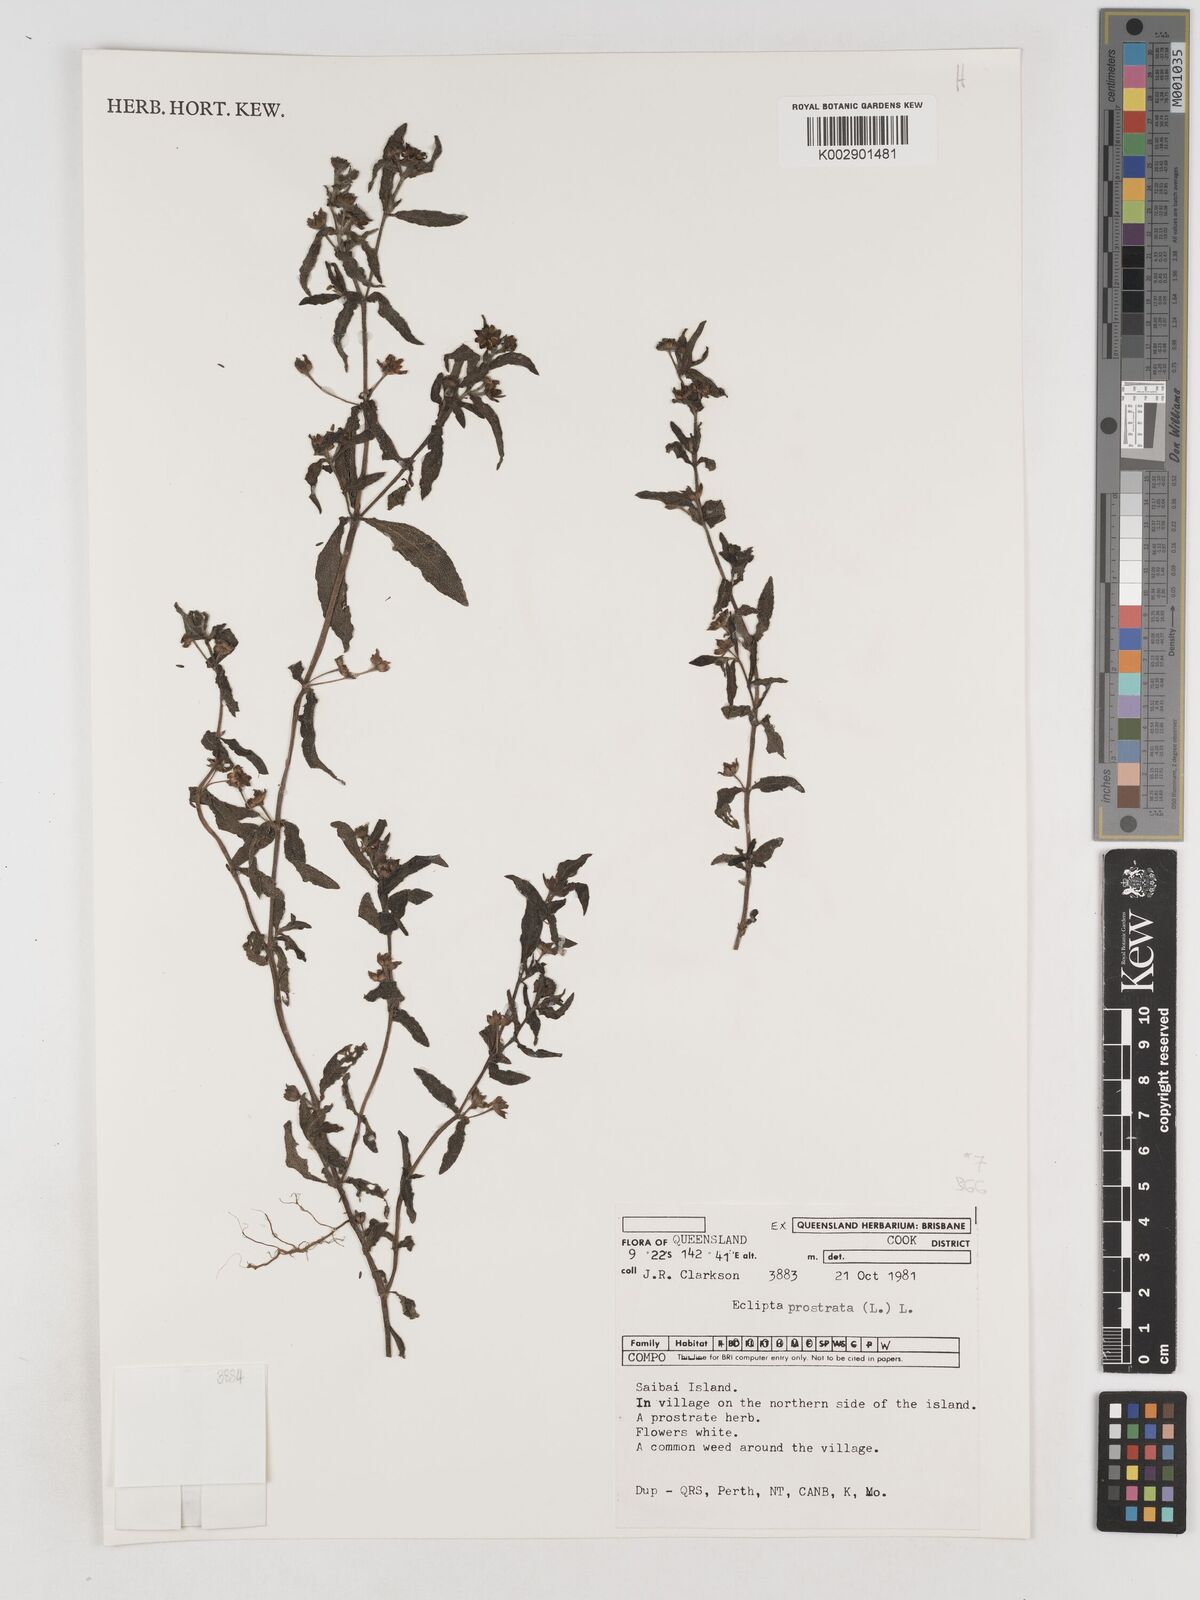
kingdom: Plantae
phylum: Tracheophyta
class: Magnoliopsida
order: Asterales
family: Asteraceae
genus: Eclipta
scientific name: Eclipta prostrata
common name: False daisy
